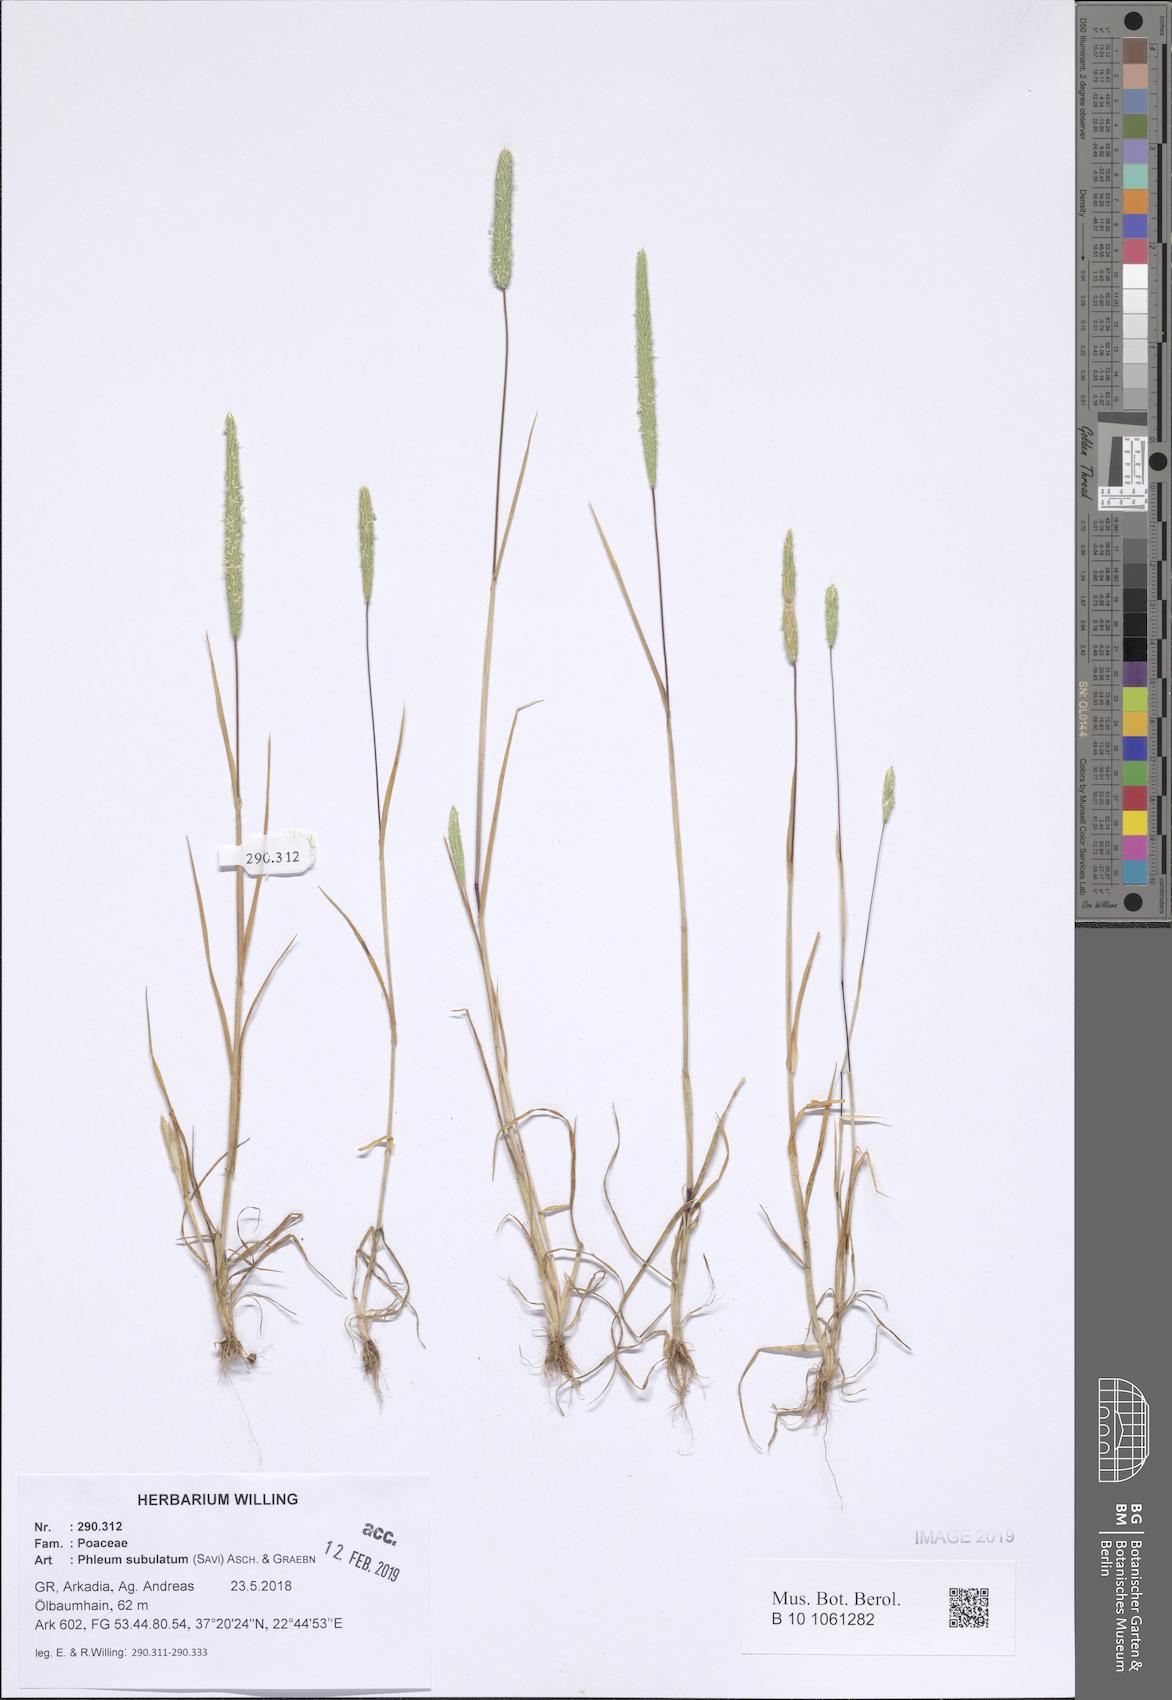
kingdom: Plantae
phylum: Tracheophyta
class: Liliopsida
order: Poales
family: Poaceae
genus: Phleum
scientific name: Phleum subulatum
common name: Italian timothy
